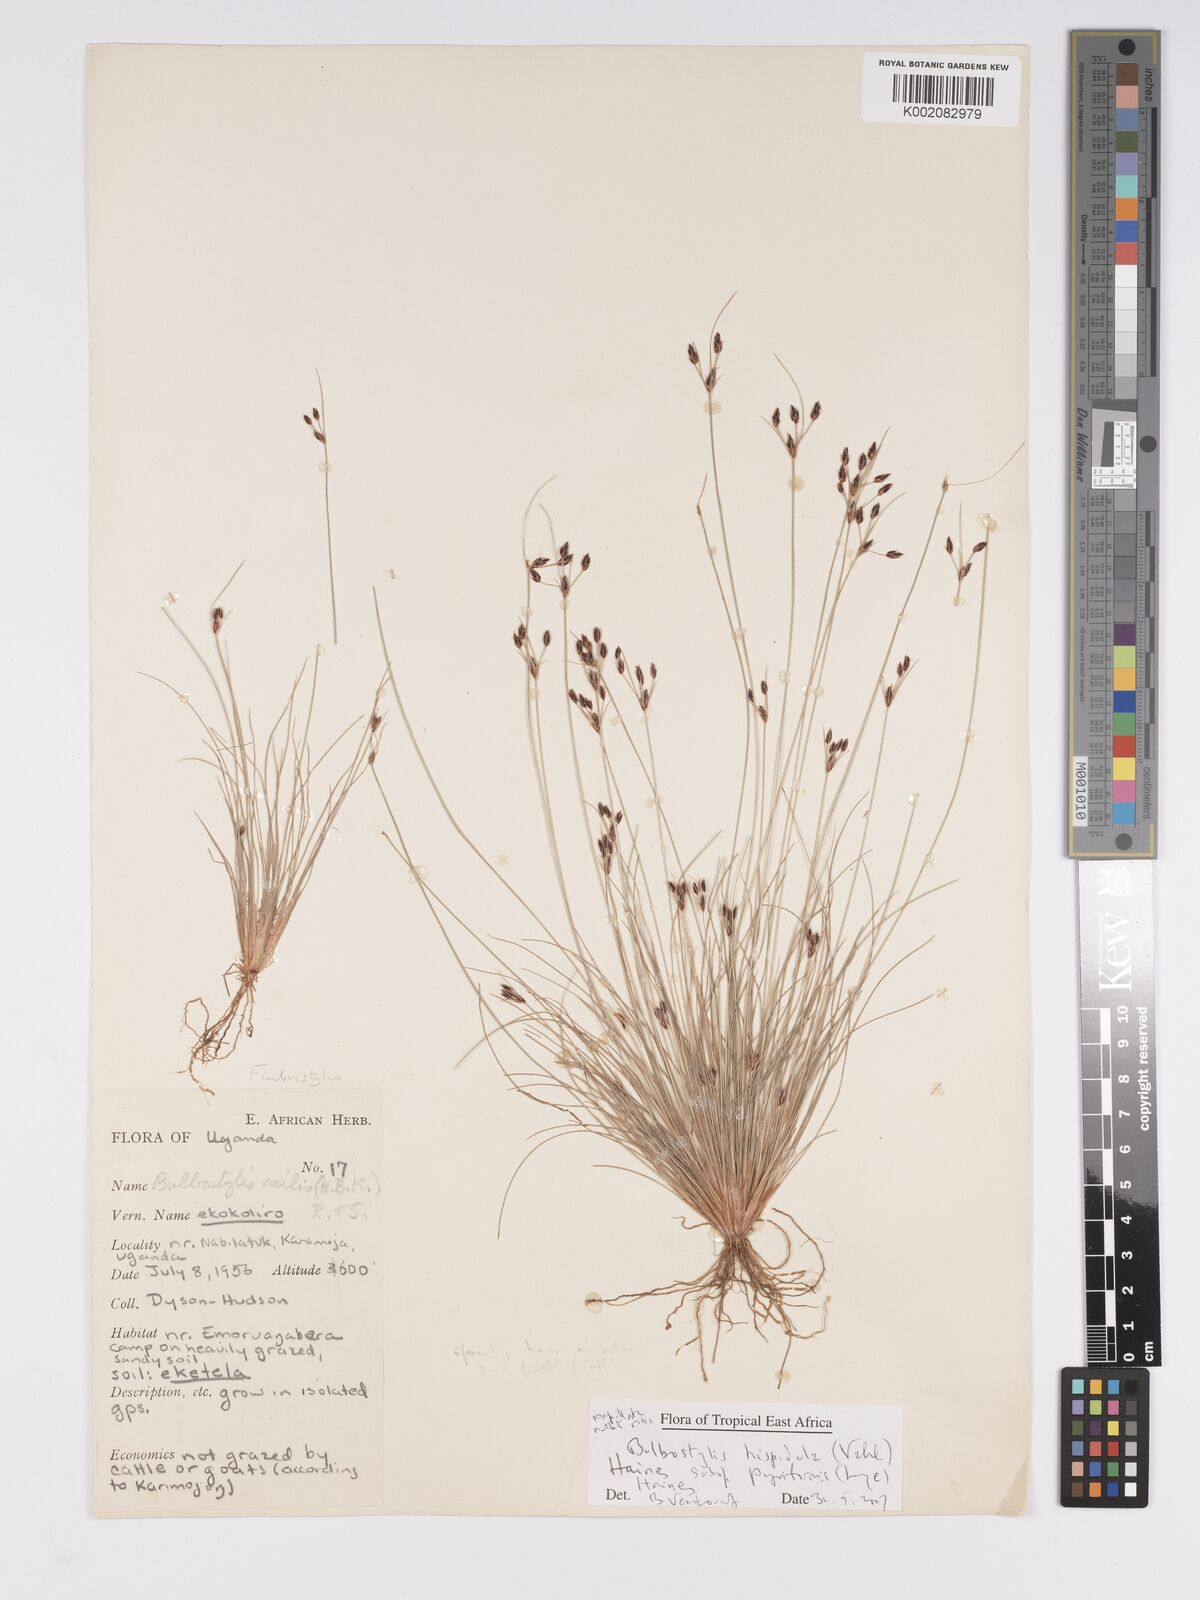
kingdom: Plantae
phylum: Tracheophyta
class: Liliopsida
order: Poales
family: Cyperaceae
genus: Bulbostylis
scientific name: Bulbostylis hispidula
